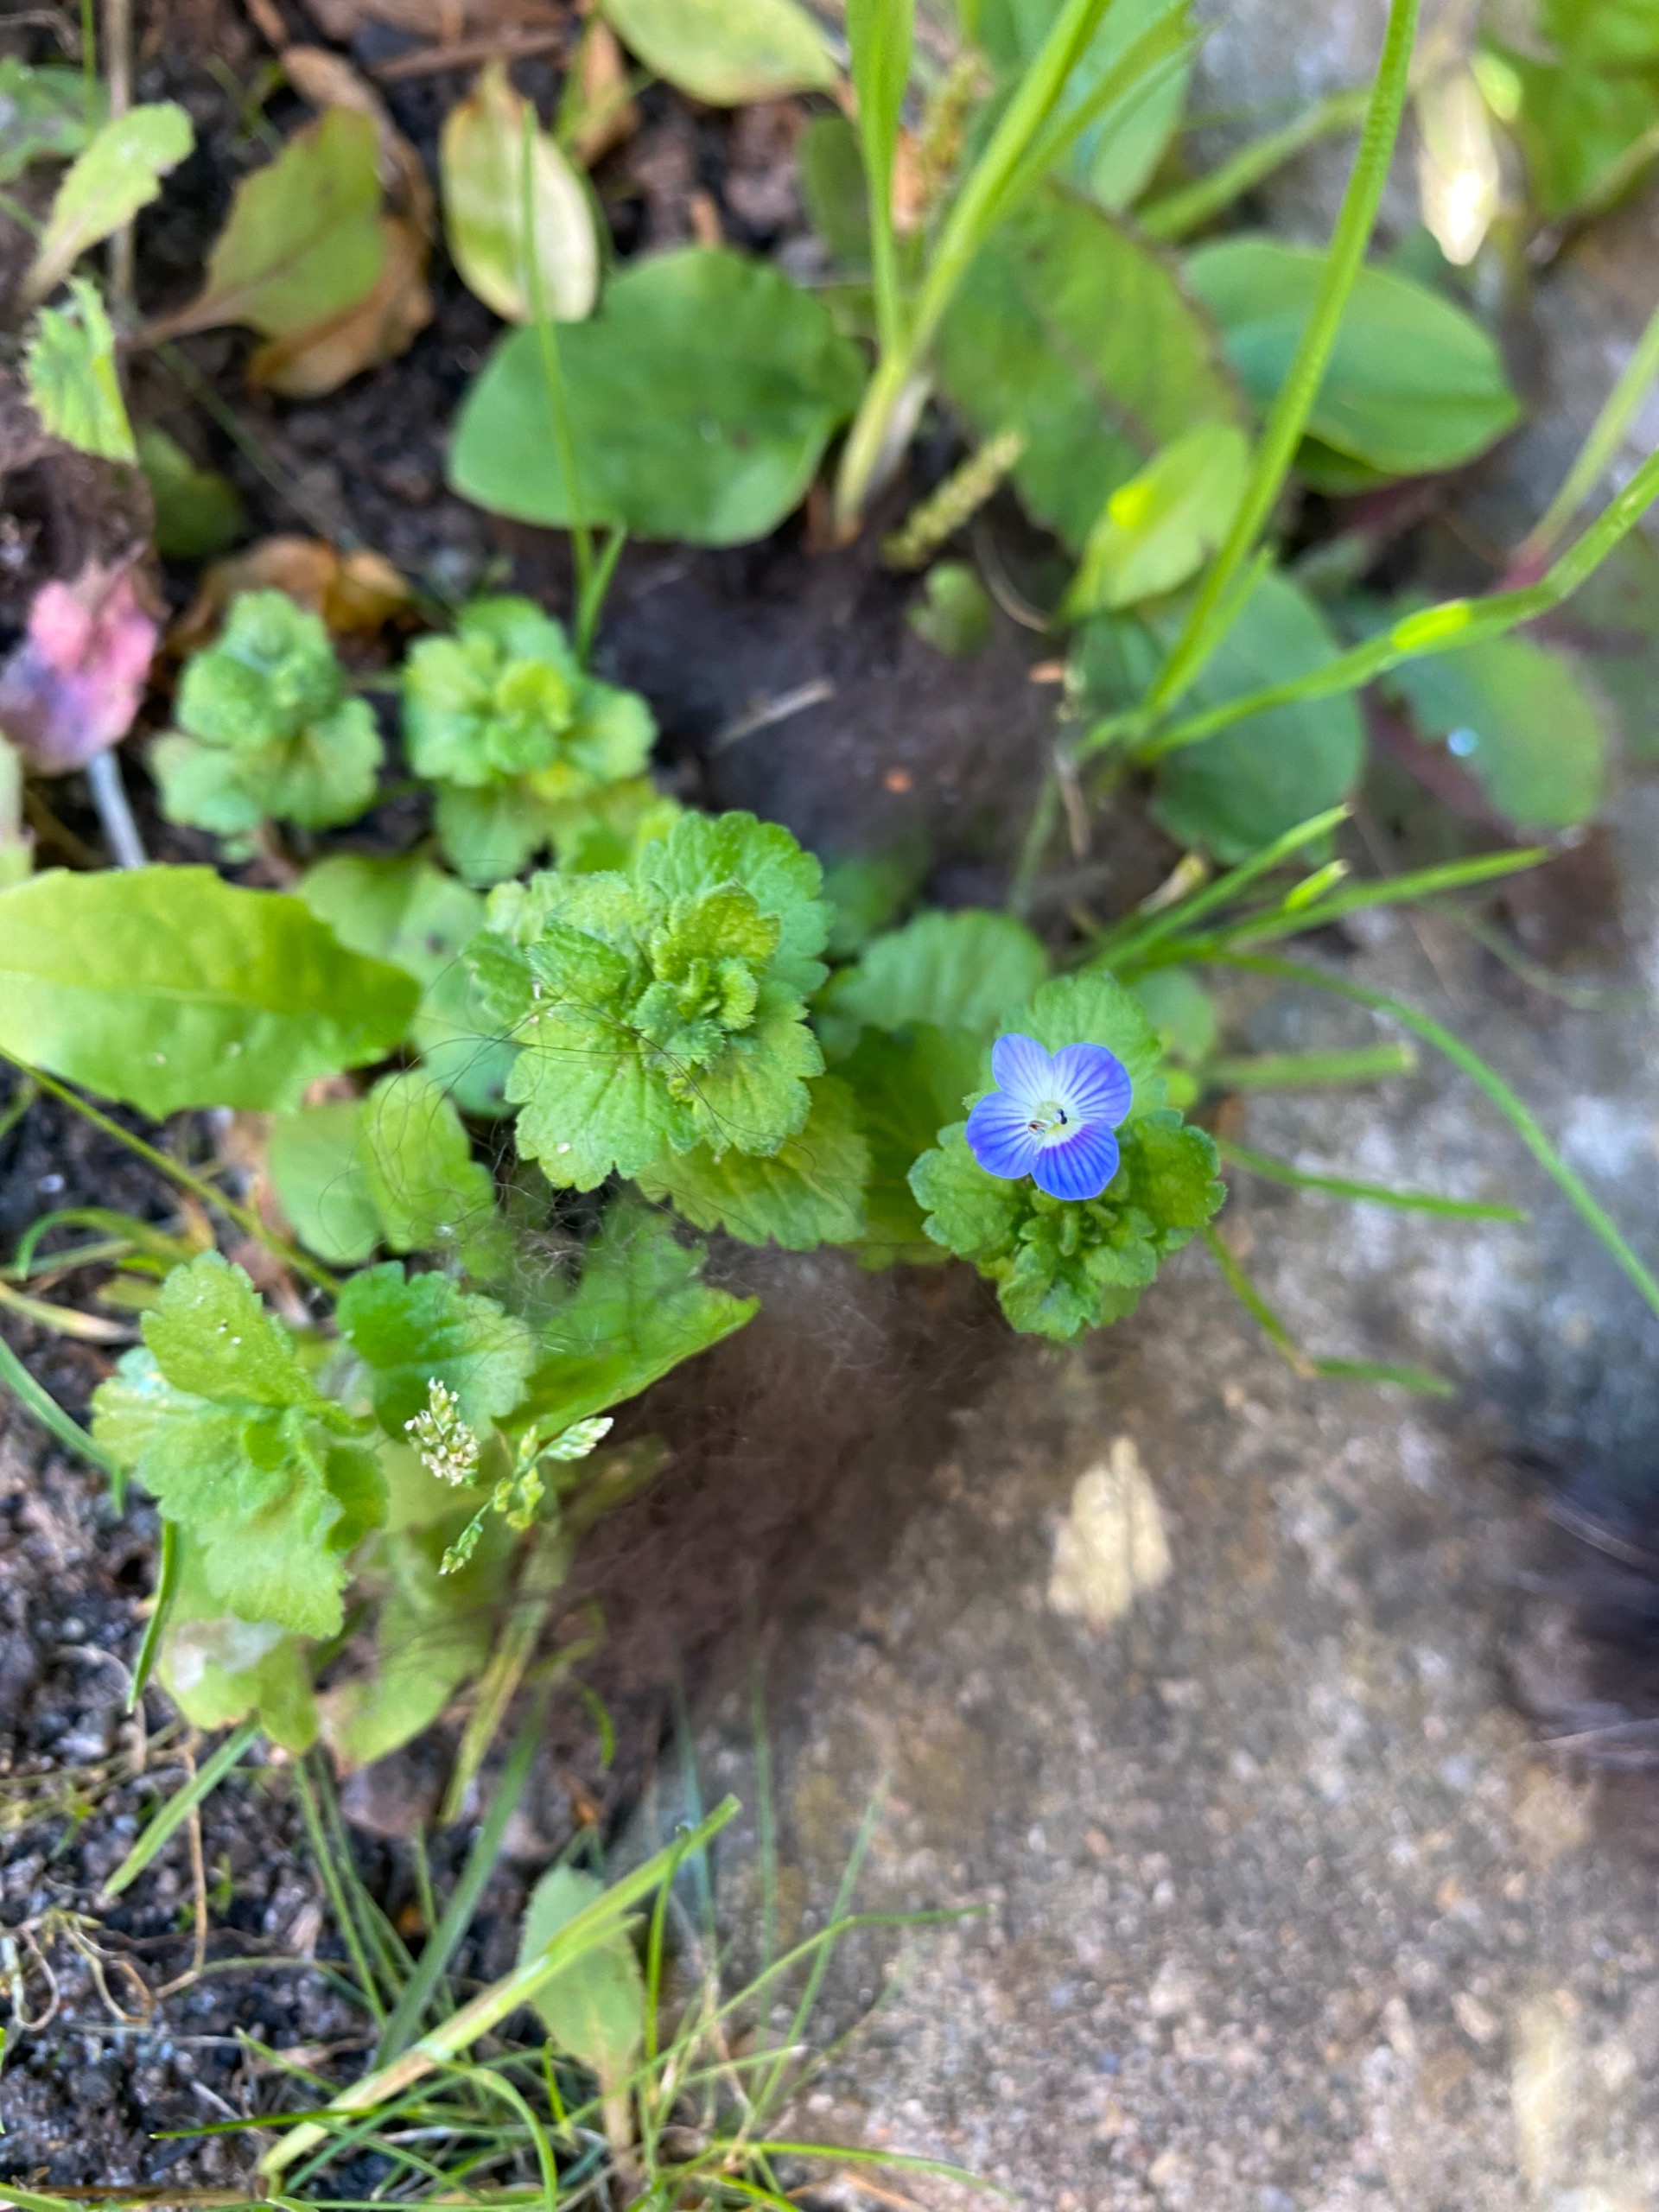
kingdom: Plantae
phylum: Tracheophyta
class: Magnoliopsida
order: Lamiales
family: Plantaginaceae
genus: Veronica
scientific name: Veronica persica
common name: Storkronet ærenpris
